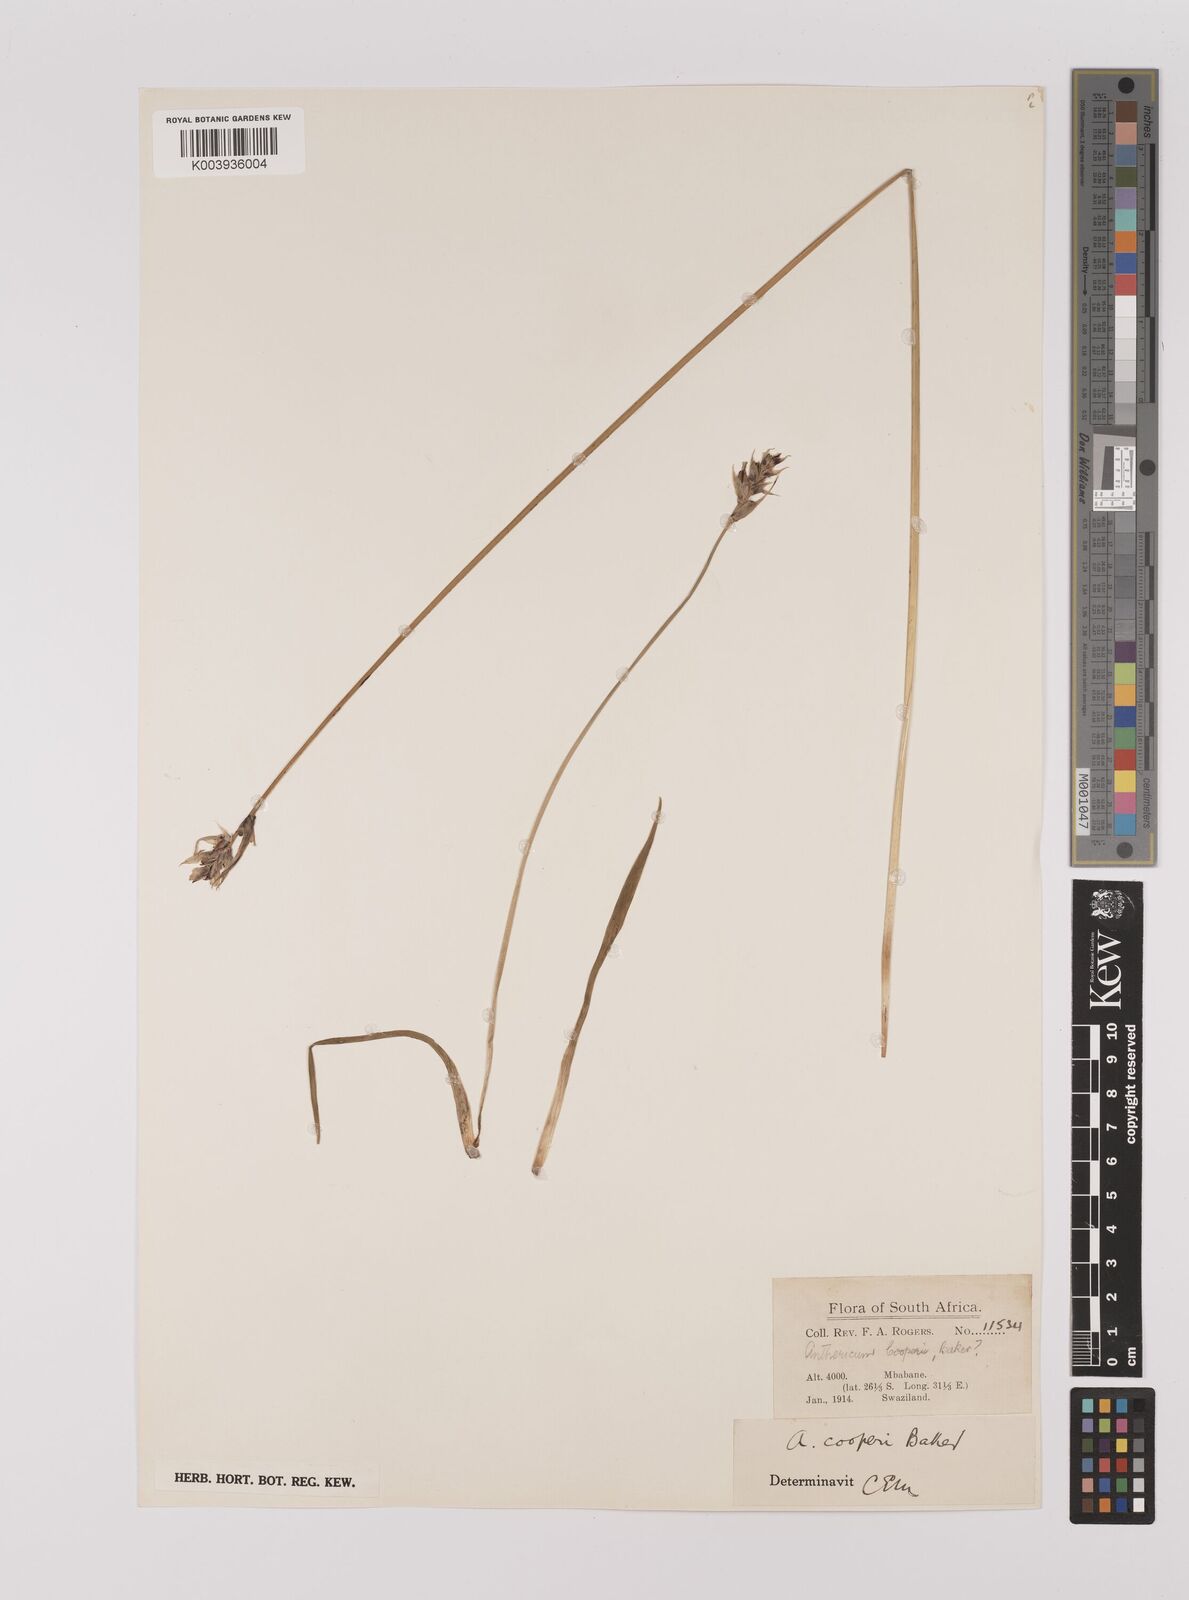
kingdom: Plantae
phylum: Tracheophyta
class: Liliopsida
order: Asparagales
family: Asparagaceae
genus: Chlorophytum
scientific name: Chlorophytum cooperi
